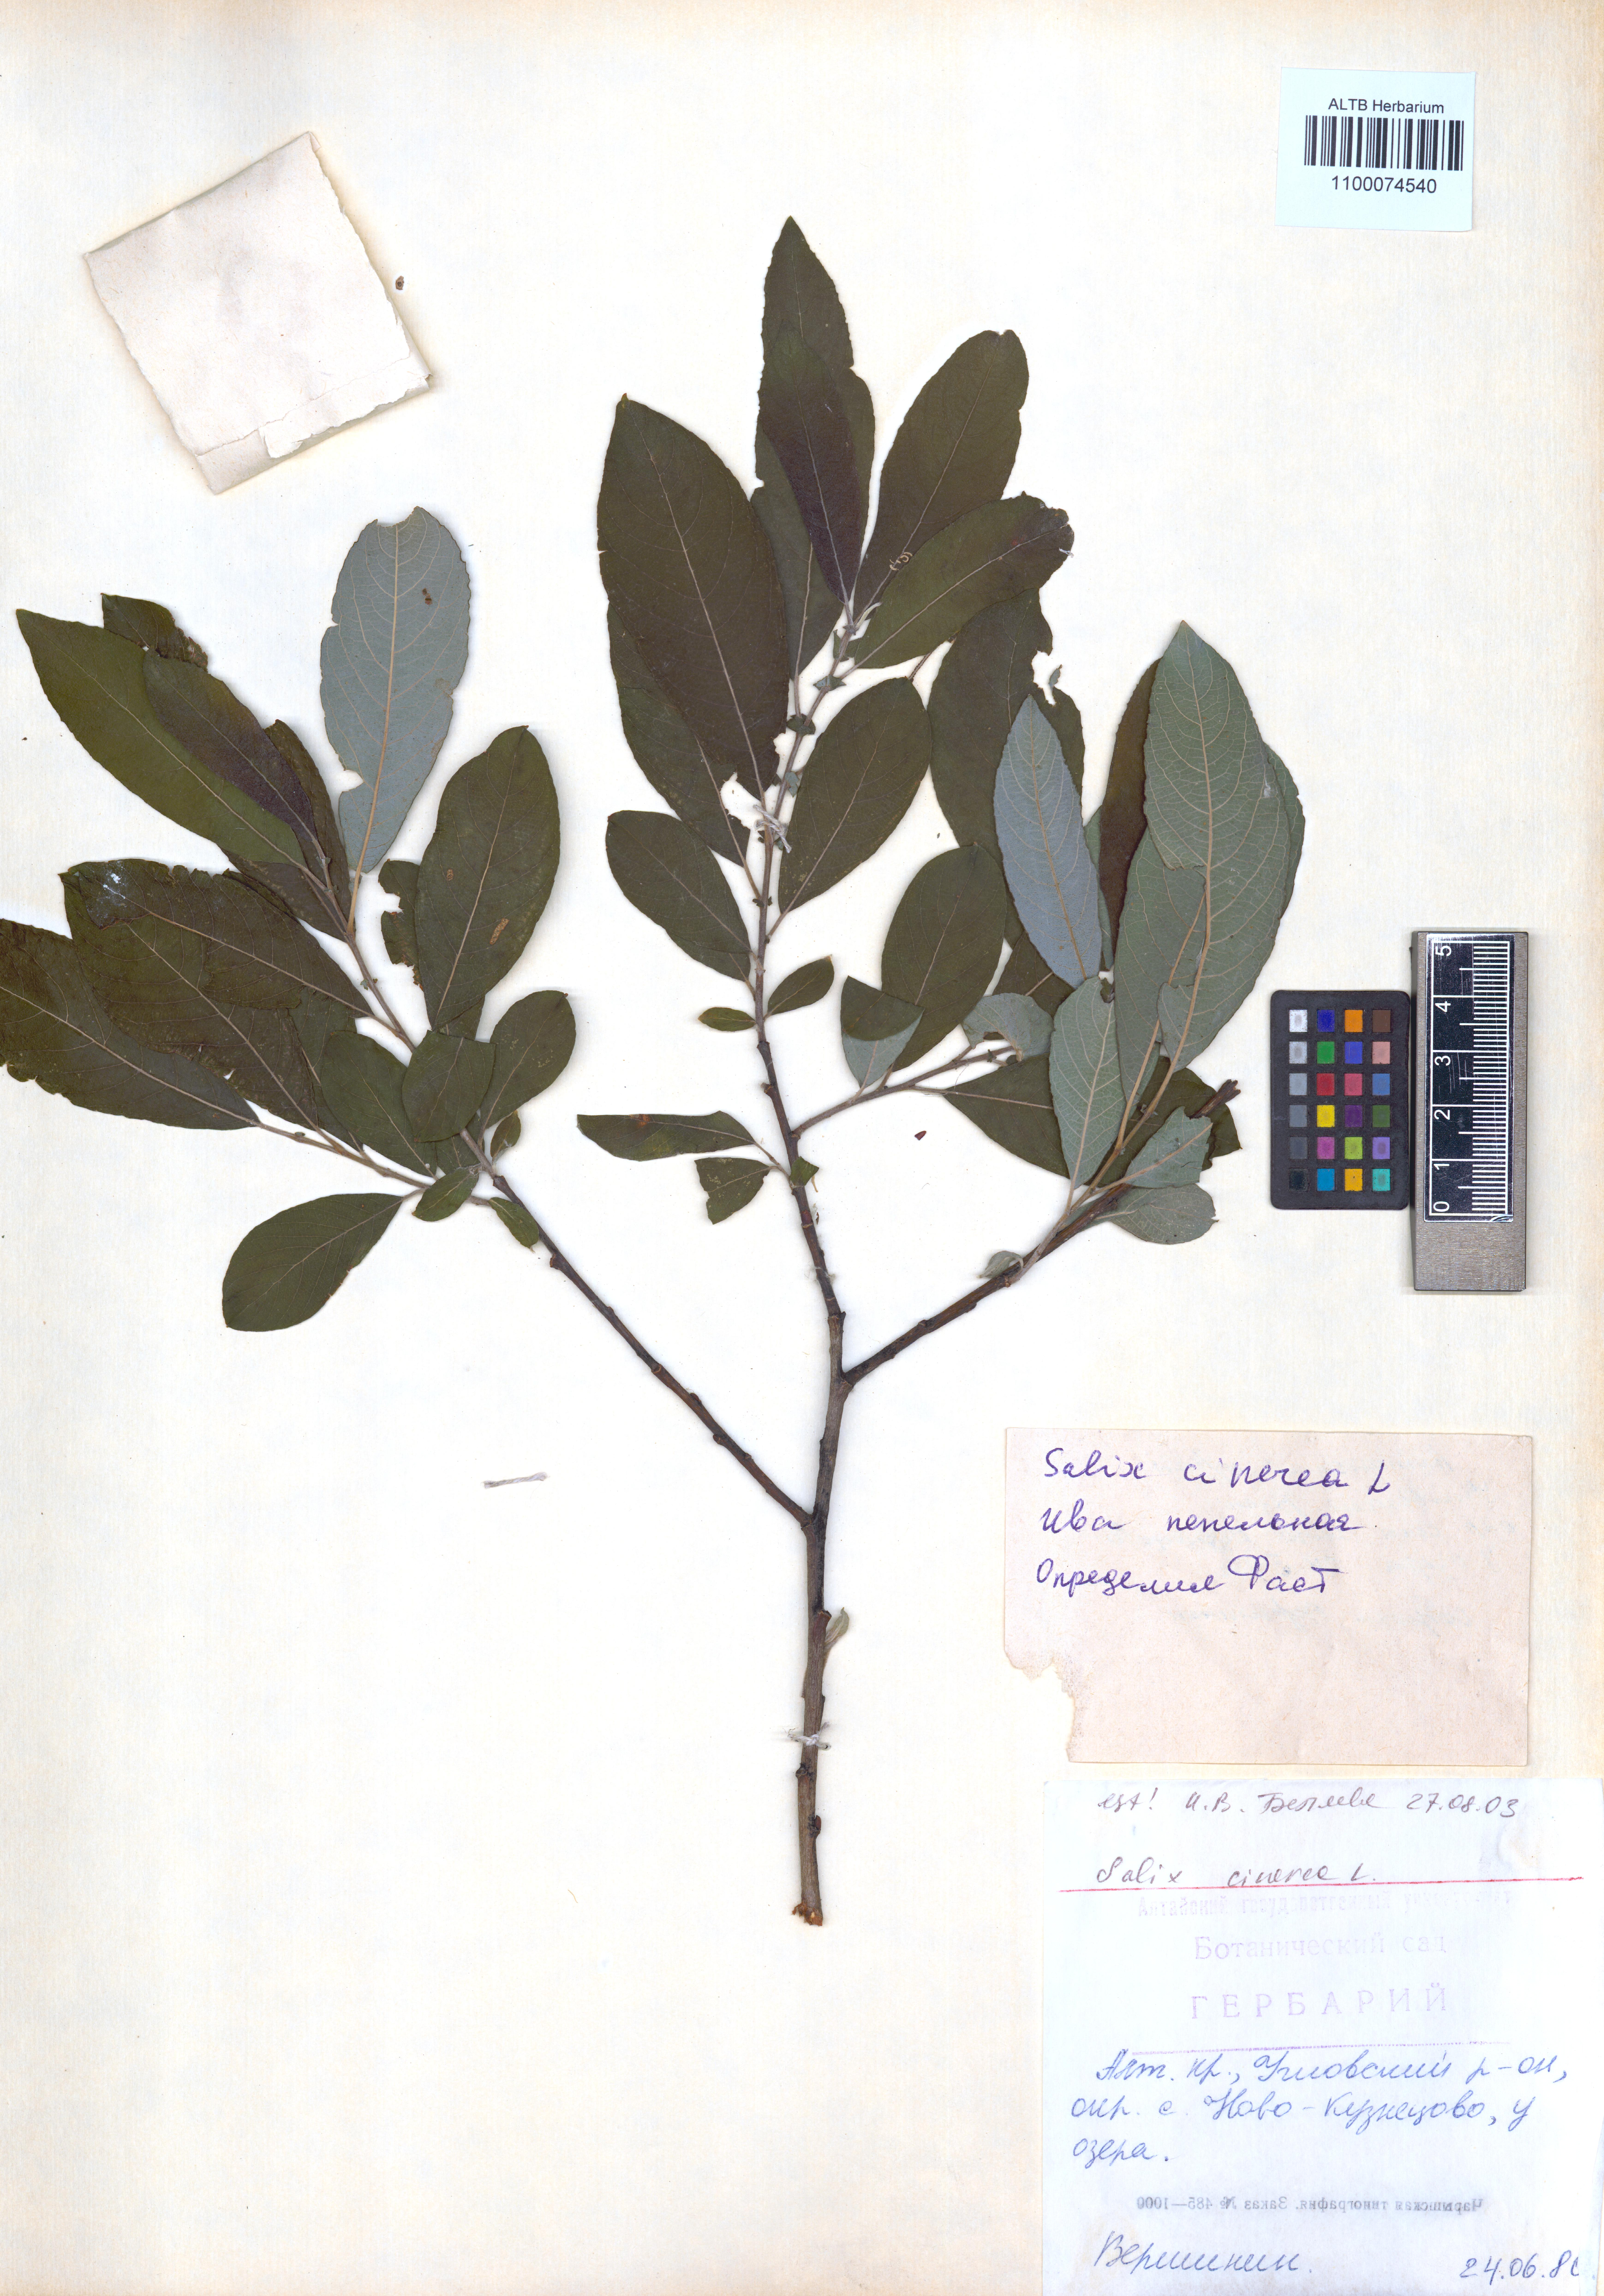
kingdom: Plantae
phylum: Tracheophyta
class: Magnoliopsida
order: Malpighiales
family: Salicaceae
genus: Salix
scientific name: Salix cinerea
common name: Common sallow
